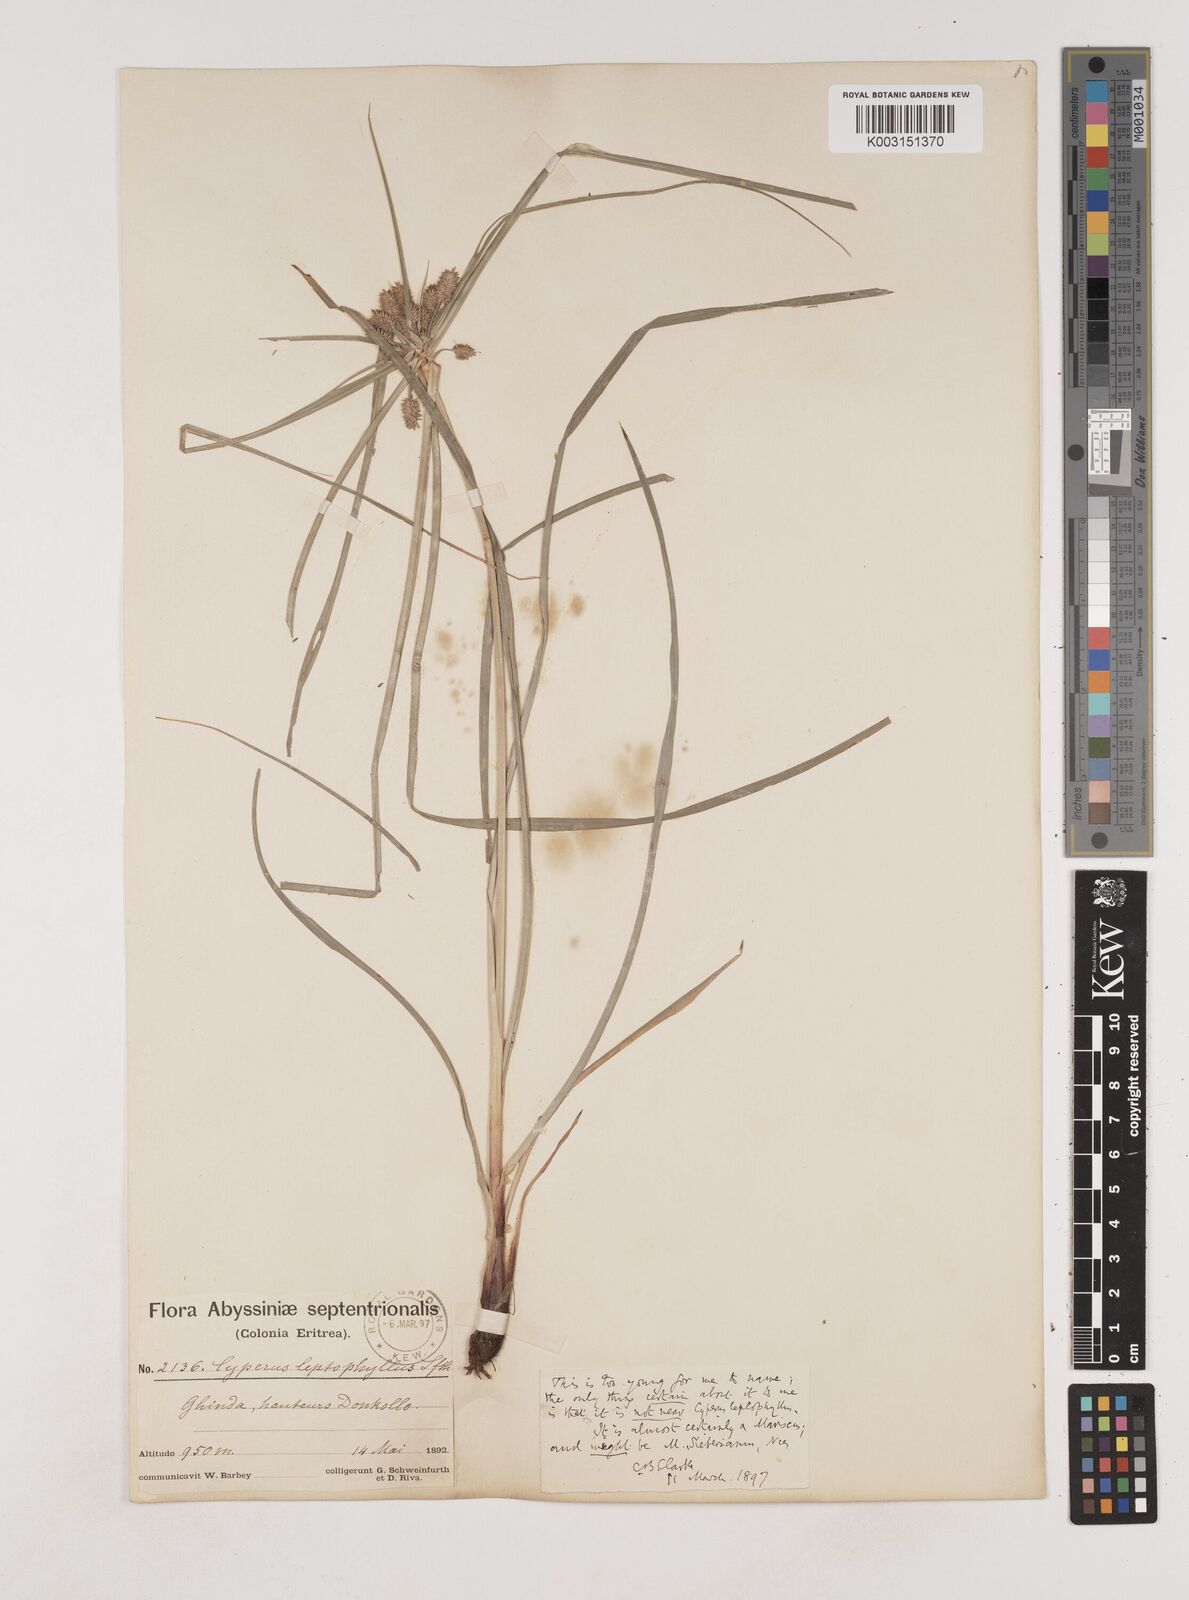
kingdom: Plantae
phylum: Tracheophyta
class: Liliopsida
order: Poales
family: Cyperaceae
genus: Cyperus
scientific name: Cyperus cyperoides
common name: Pacific island flat sedge
